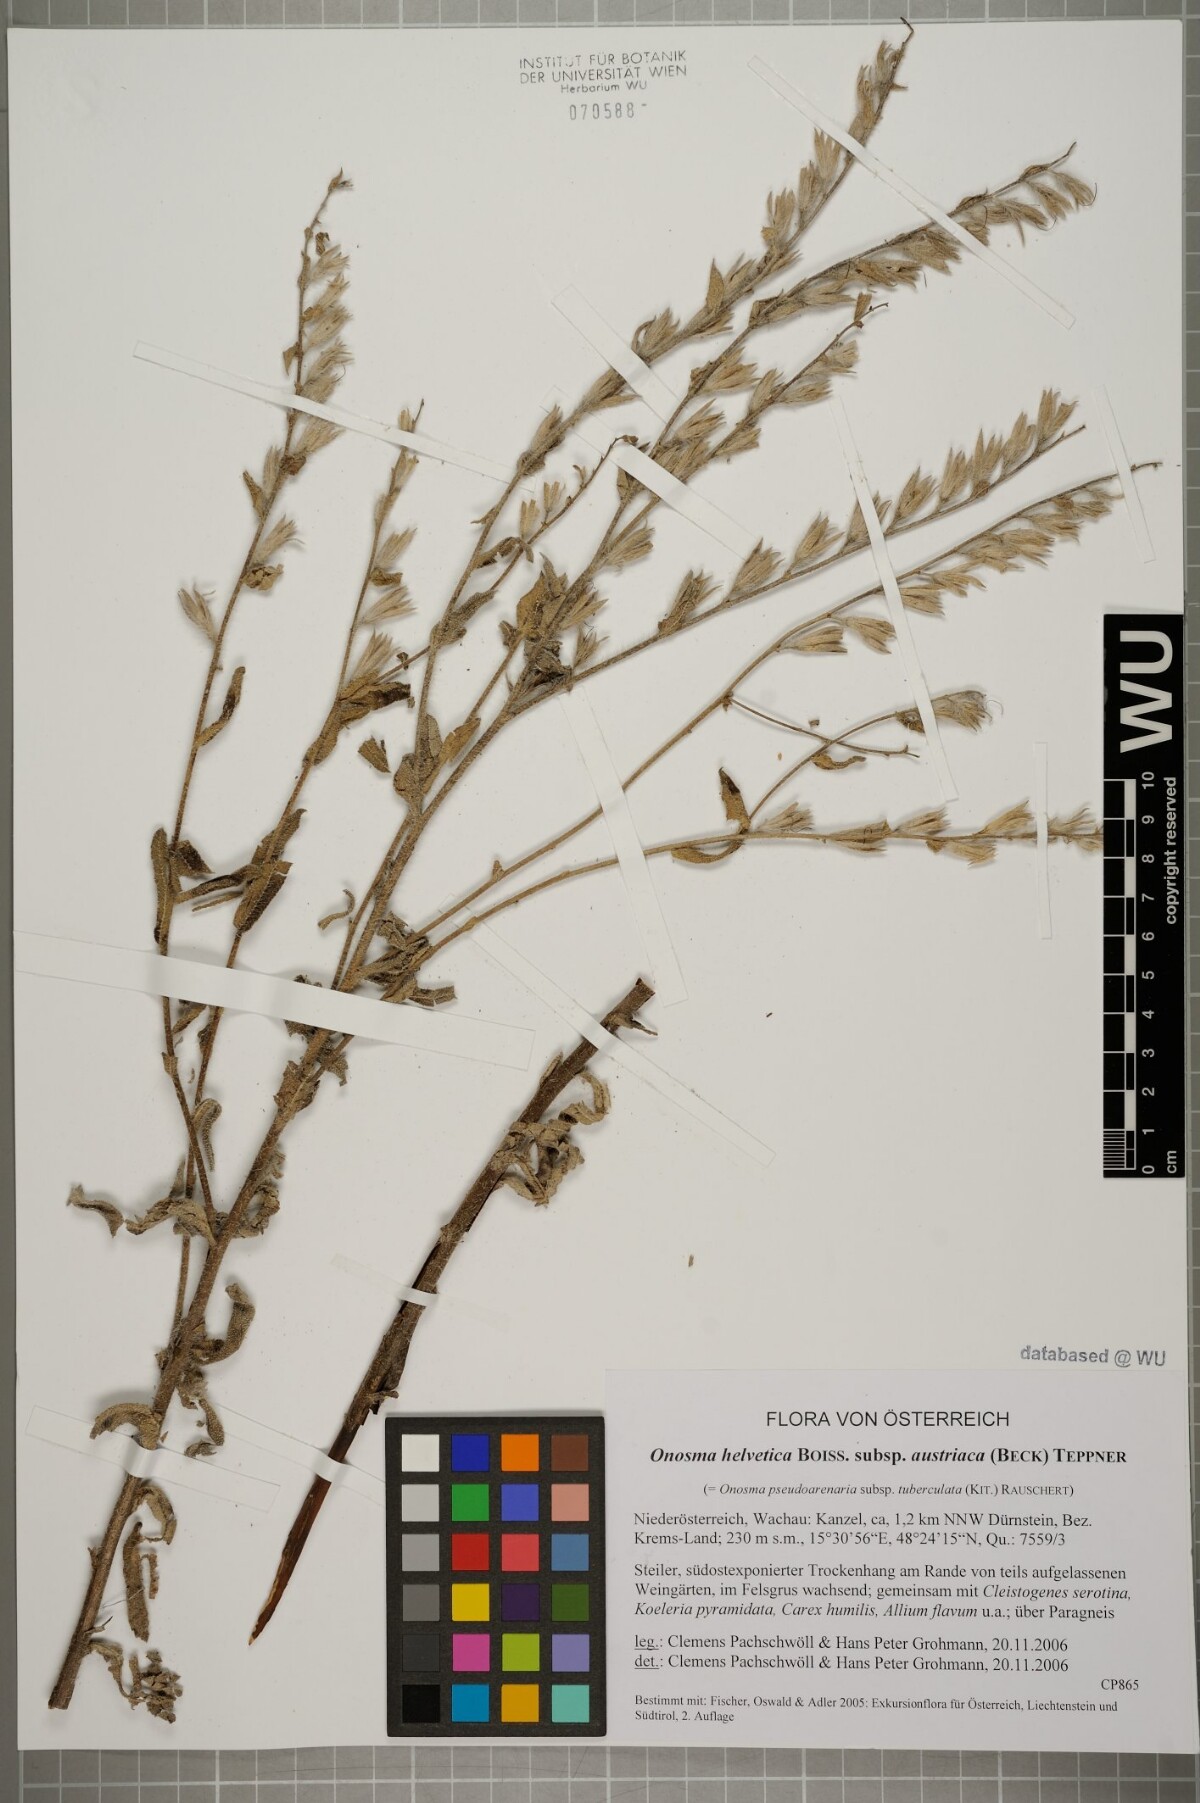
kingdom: Plantae
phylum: Tracheophyta
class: Magnoliopsida
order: Boraginales
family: Boraginaceae
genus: Onosma
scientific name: Onosma arenaria
